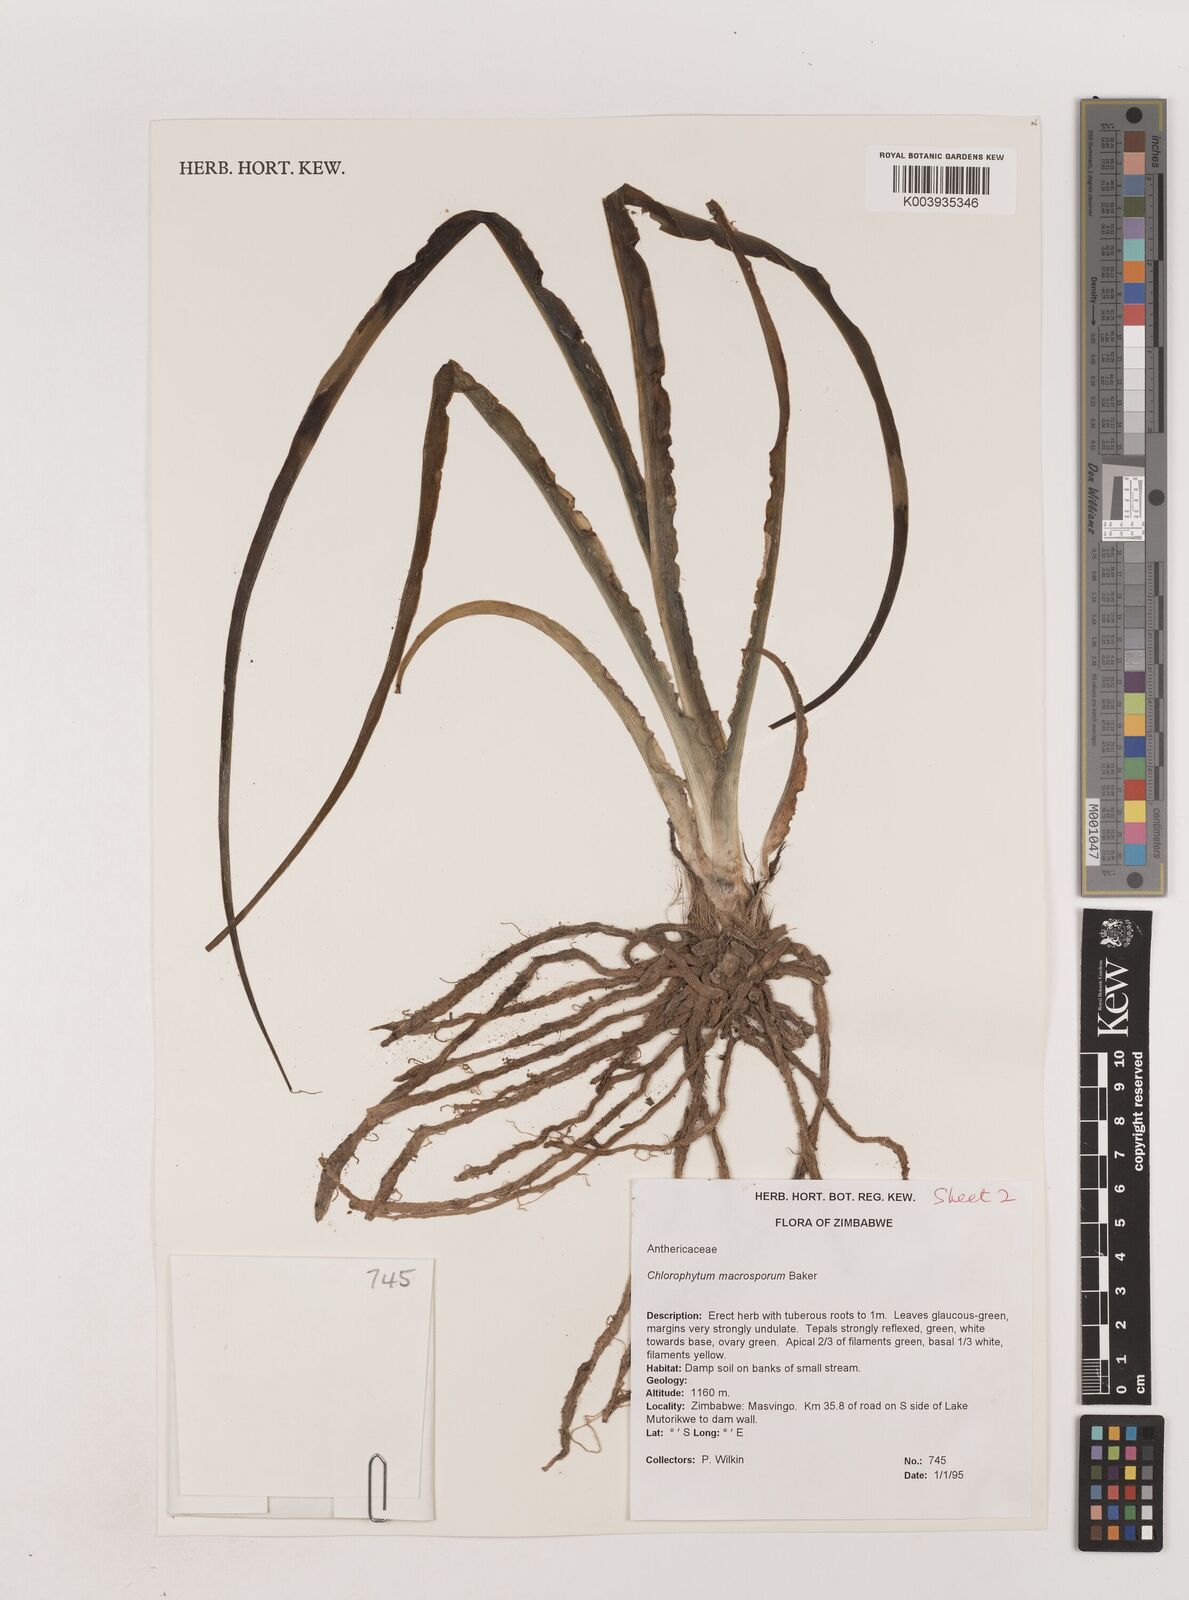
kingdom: Plantae
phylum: Tracheophyta
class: Liliopsida
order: Asparagales
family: Asparagaceae
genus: Chlorophytum
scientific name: Chlorophytum macrosporum
